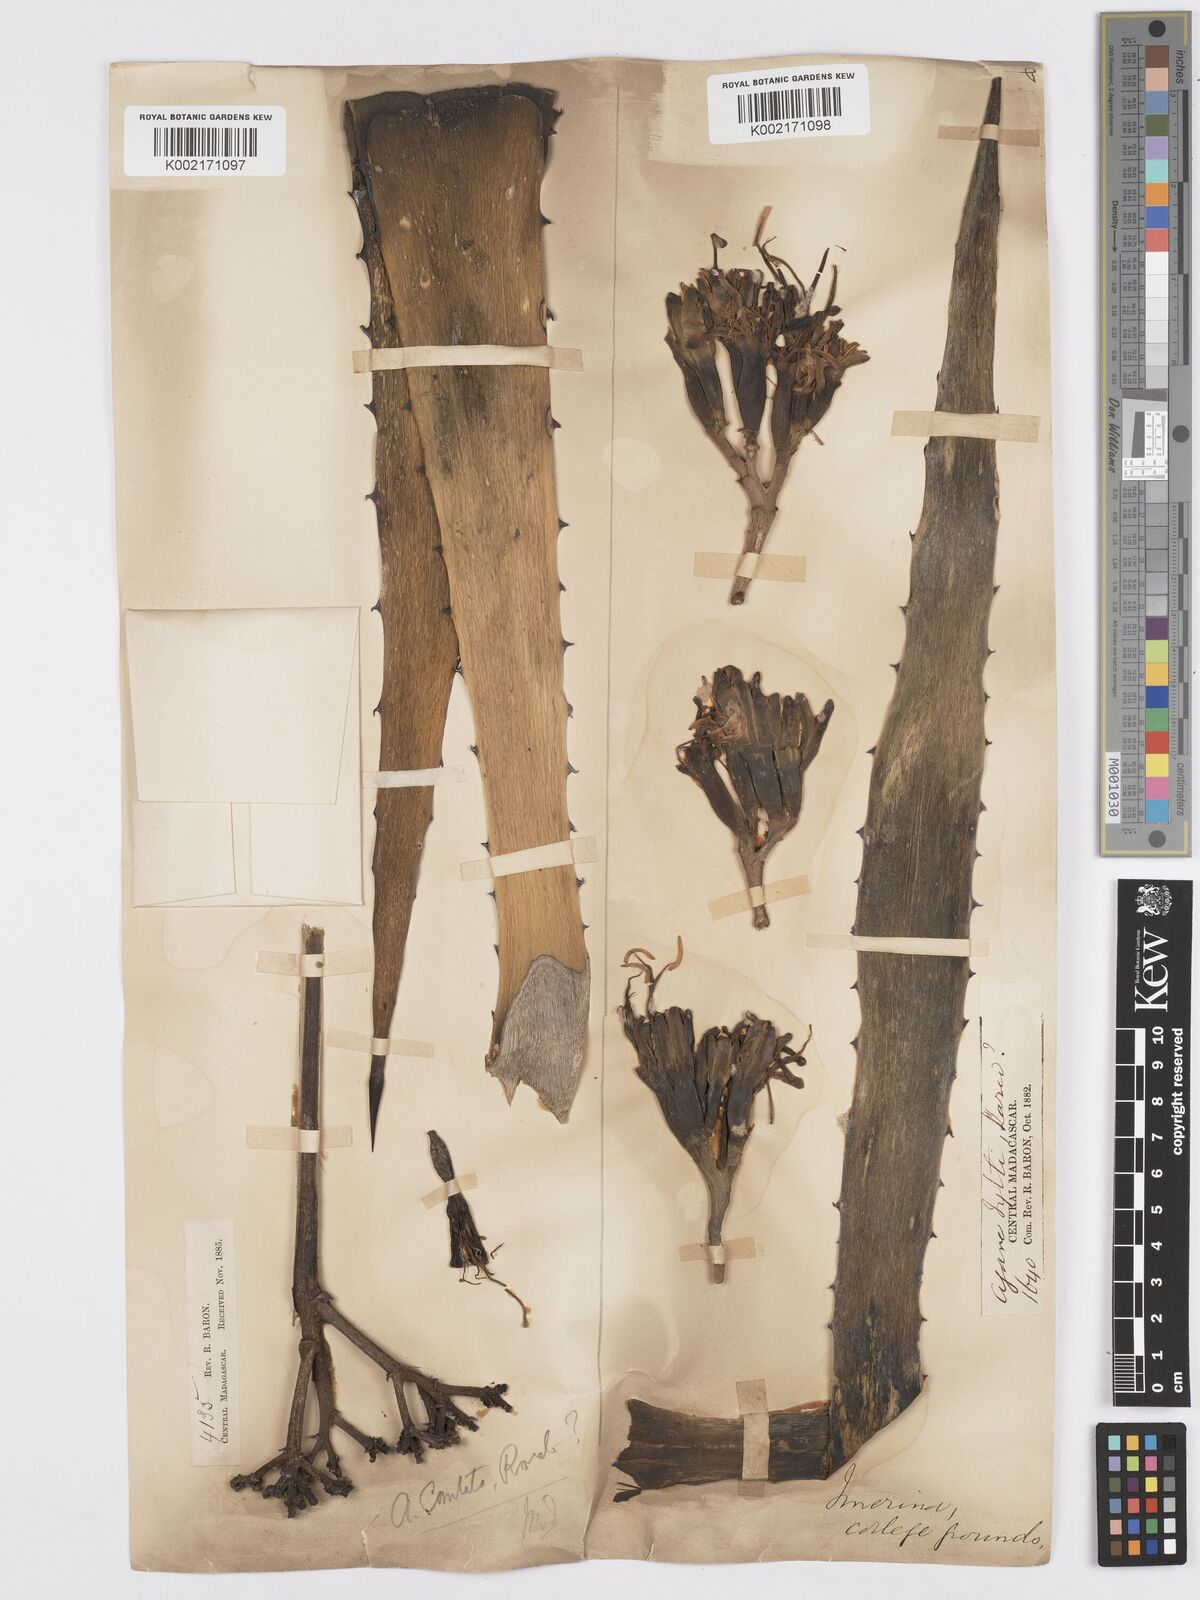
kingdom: Plantae
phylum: Tracheophyta
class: Liliopsida
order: Asparagales
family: Asparagaceae
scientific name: Asparagaceae
